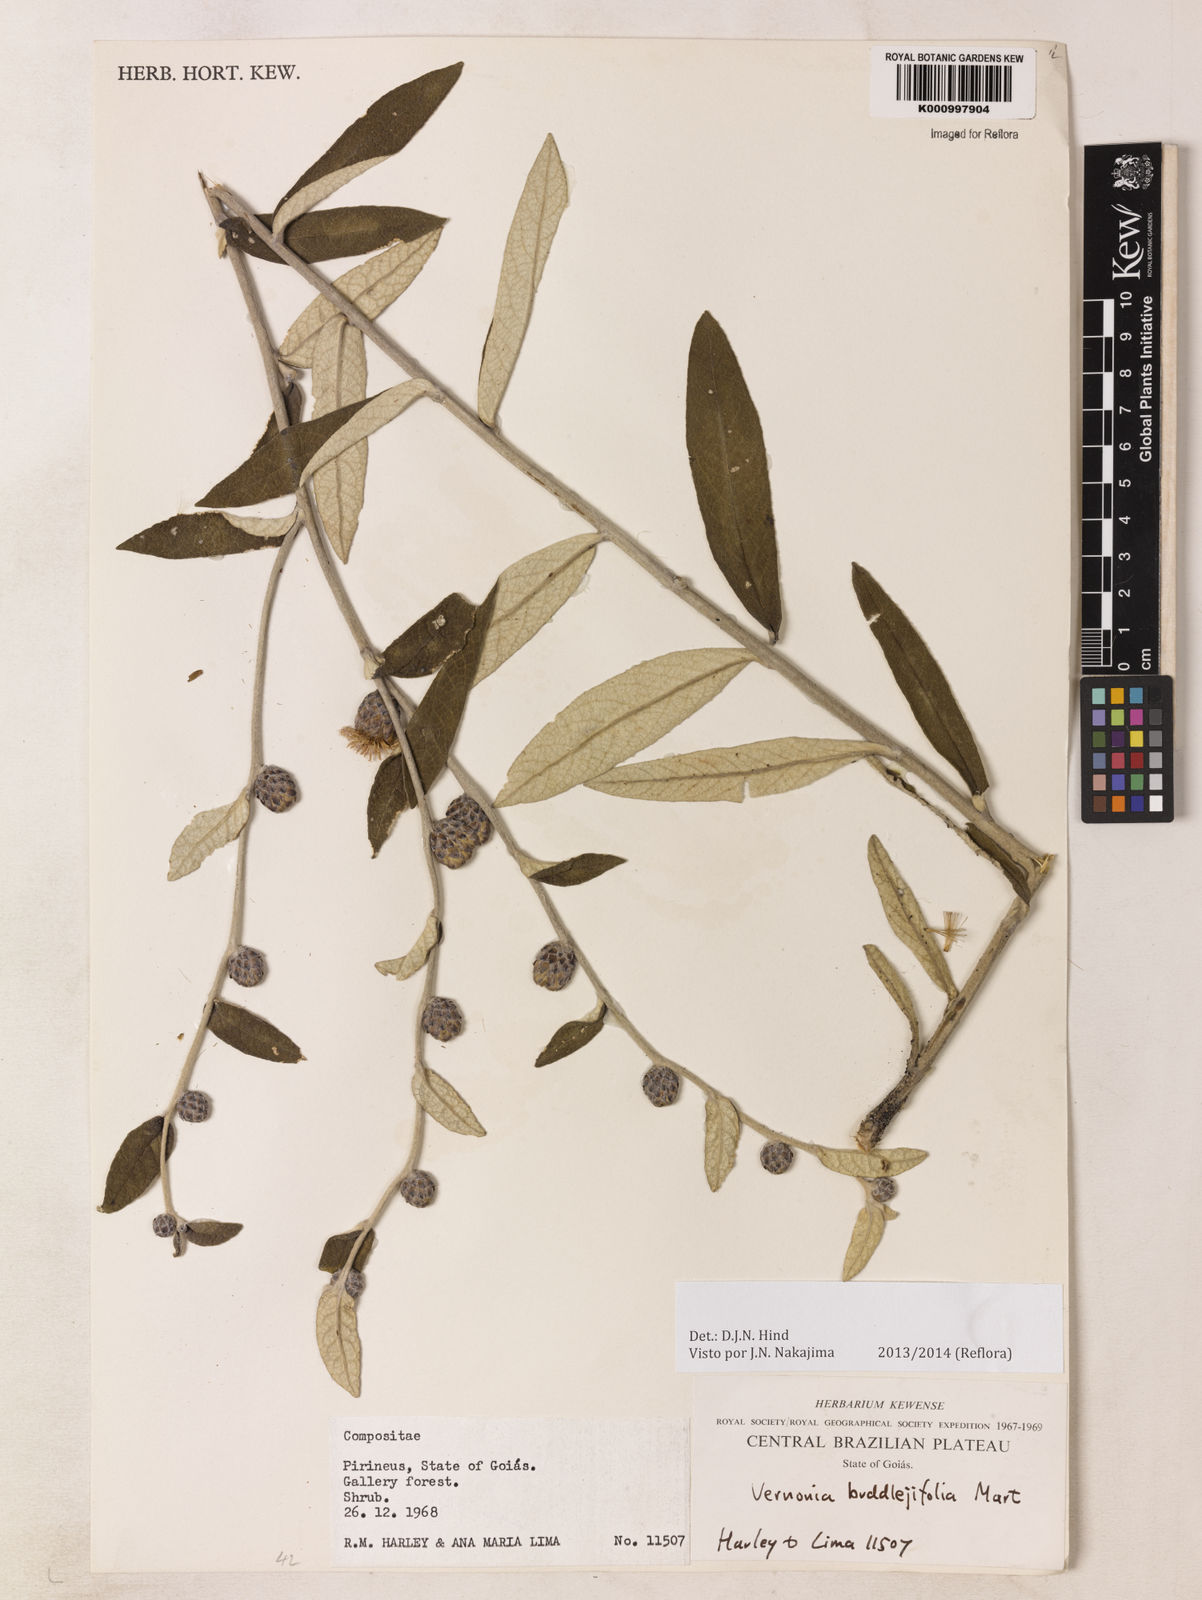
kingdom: Plantae
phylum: Tracheophyta
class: Magnoliopsida
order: Asterales
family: Asteraceae
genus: Lessingianthus
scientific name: Lessingianthus buddlejifolius
